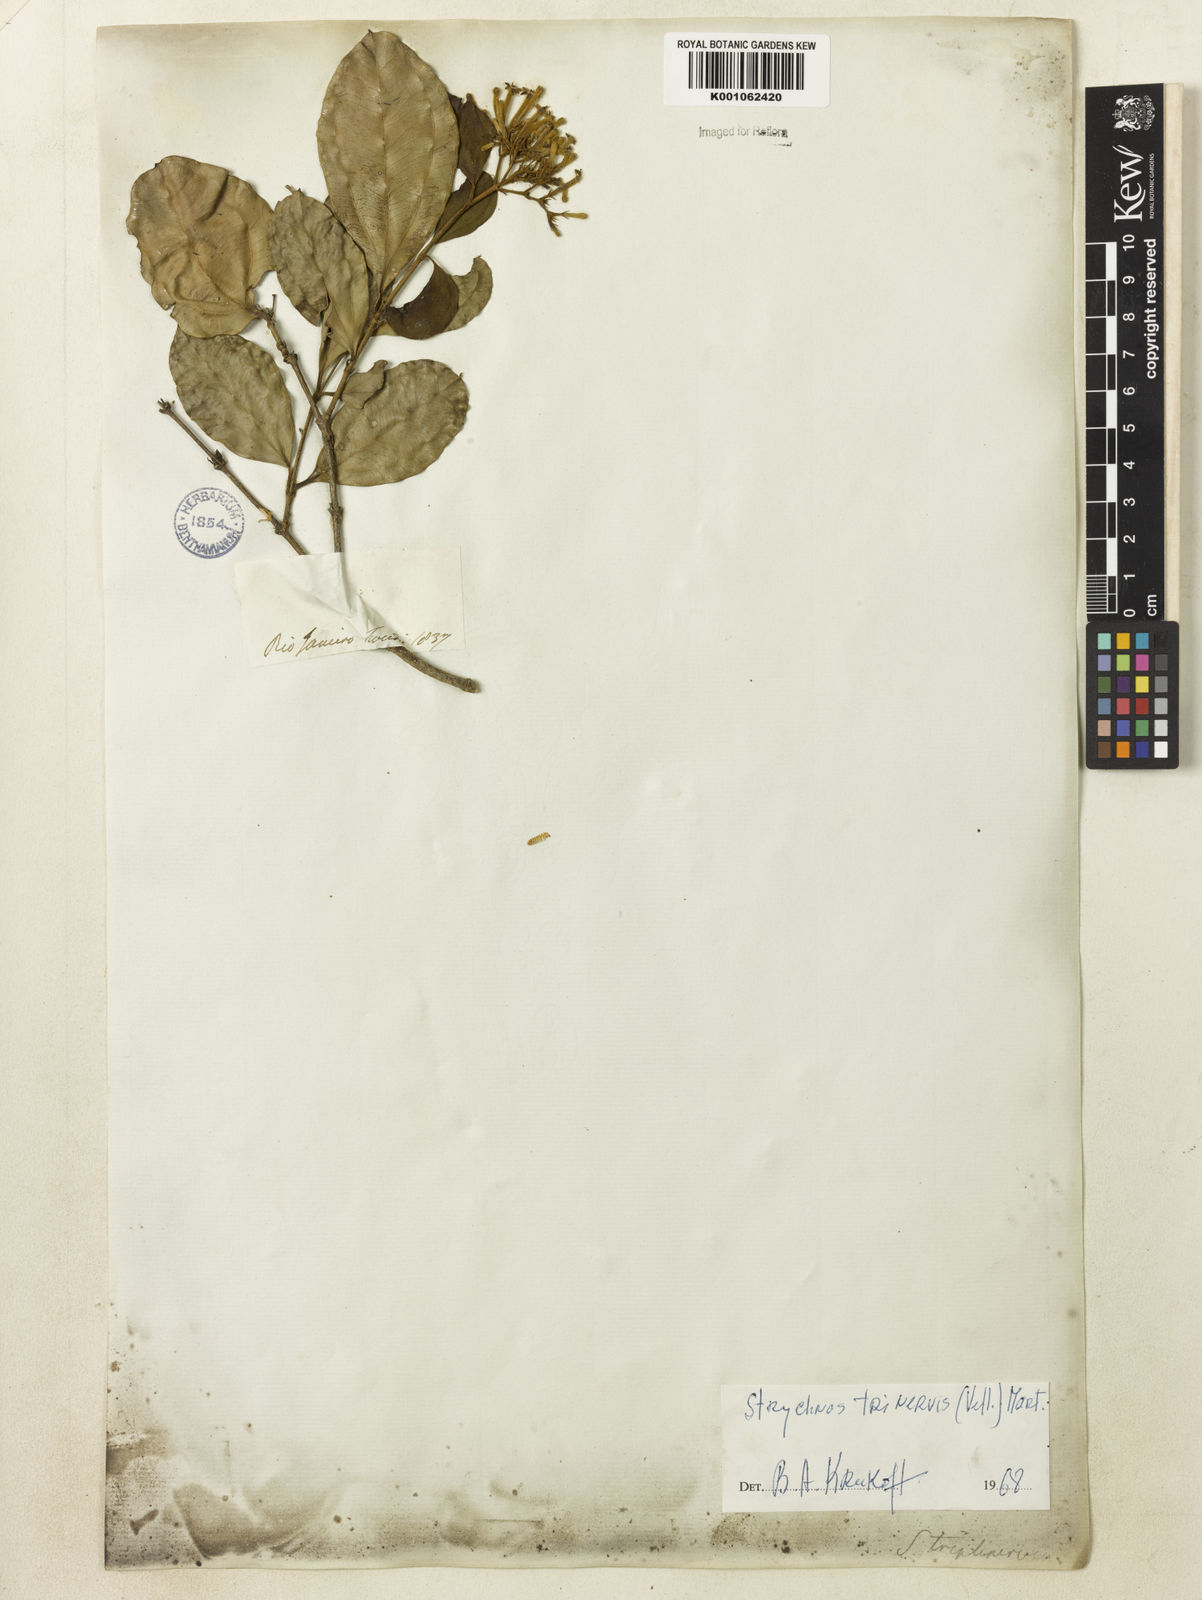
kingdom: Plantae
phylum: Tracheophyta
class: Magnoliopsida
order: Gentianales
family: Loganiaceae
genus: Strychnos
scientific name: Strychnos
